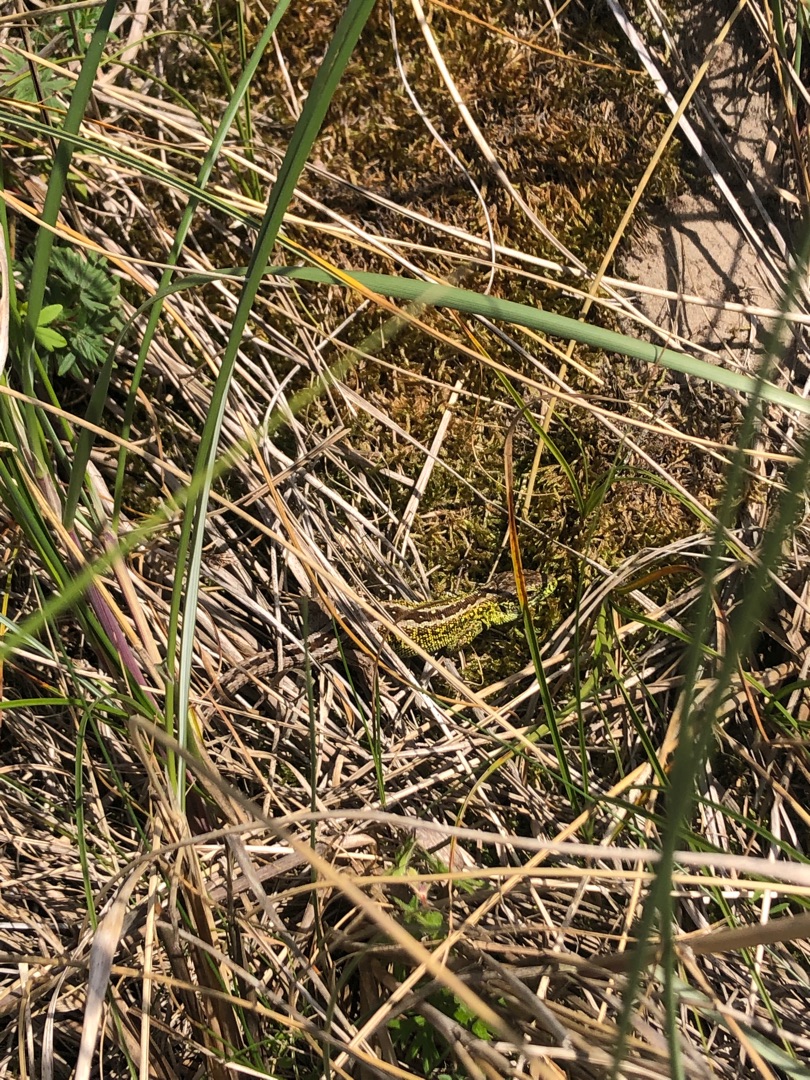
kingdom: Animalia
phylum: Chordata
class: Squamata
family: Lacertidae
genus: Lacerta
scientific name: Lacerta agilis
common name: Markfirben
